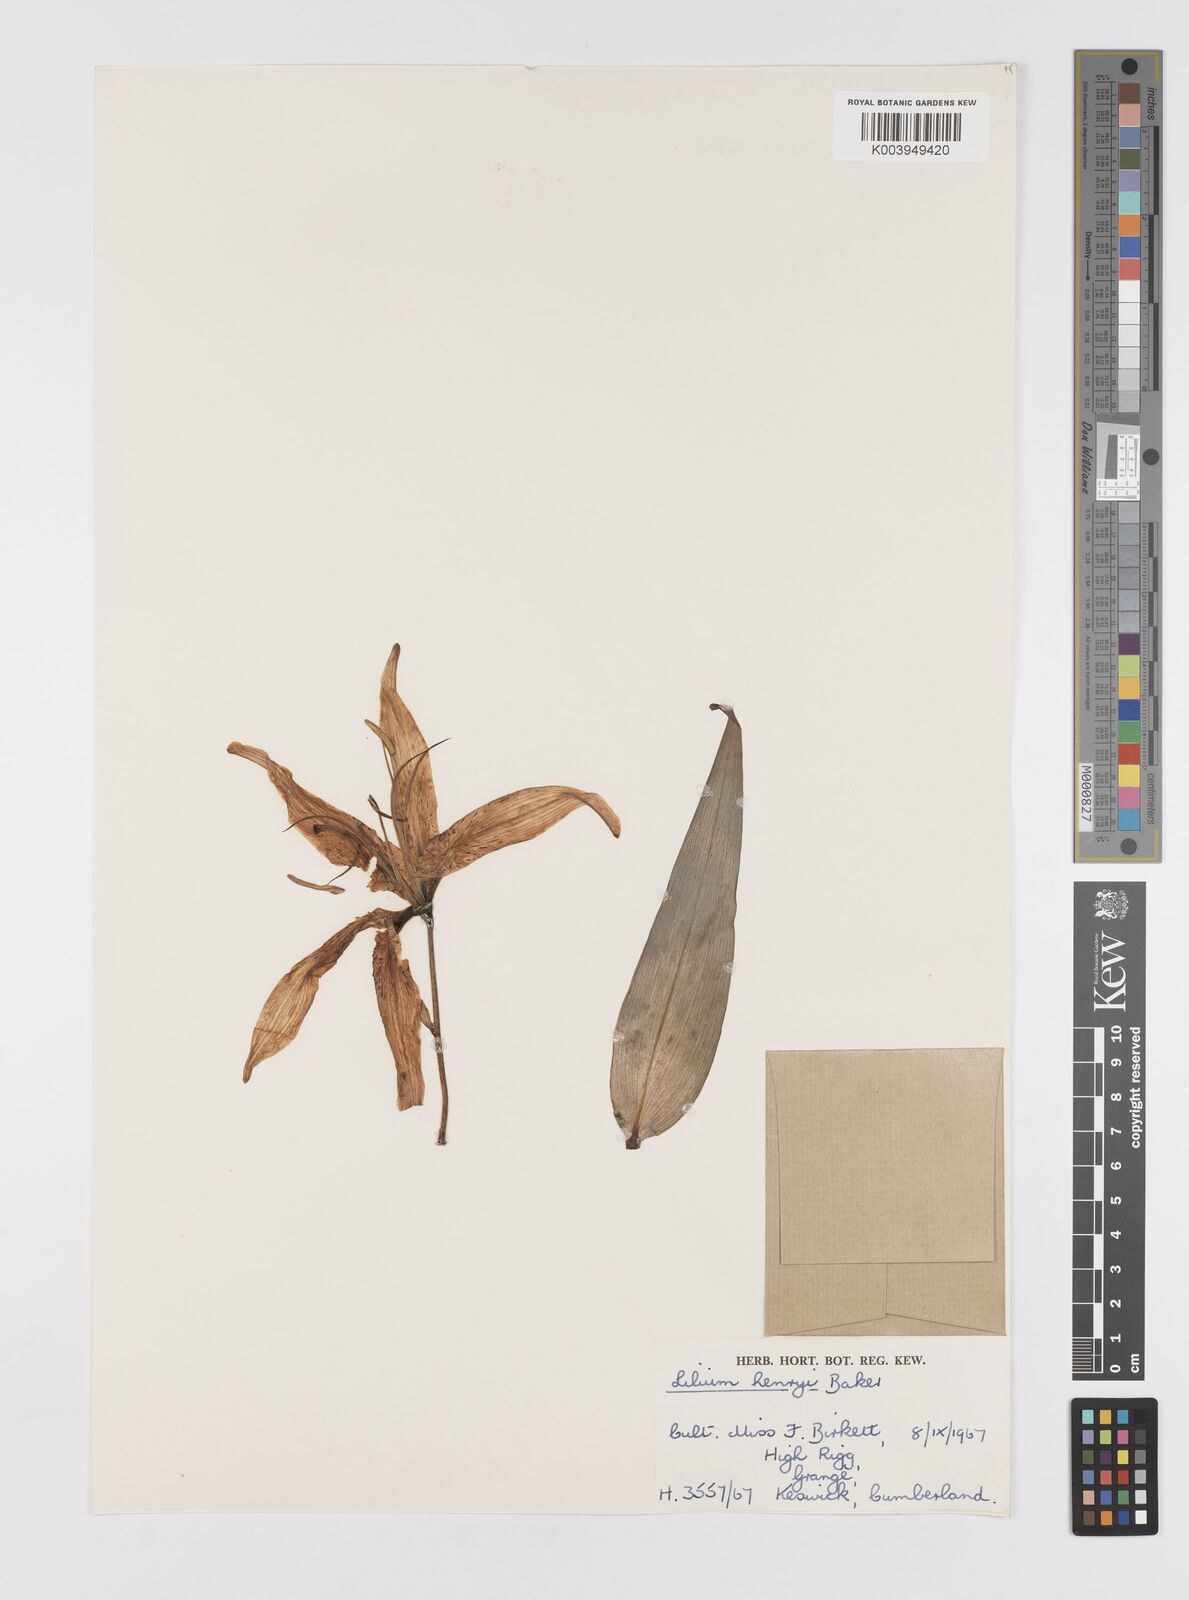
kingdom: Plantae
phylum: Tracheophyta
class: Liliopsida
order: Liliales
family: Liliaceae
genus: Lilium
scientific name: Lilium henryi
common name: Henry's lily
